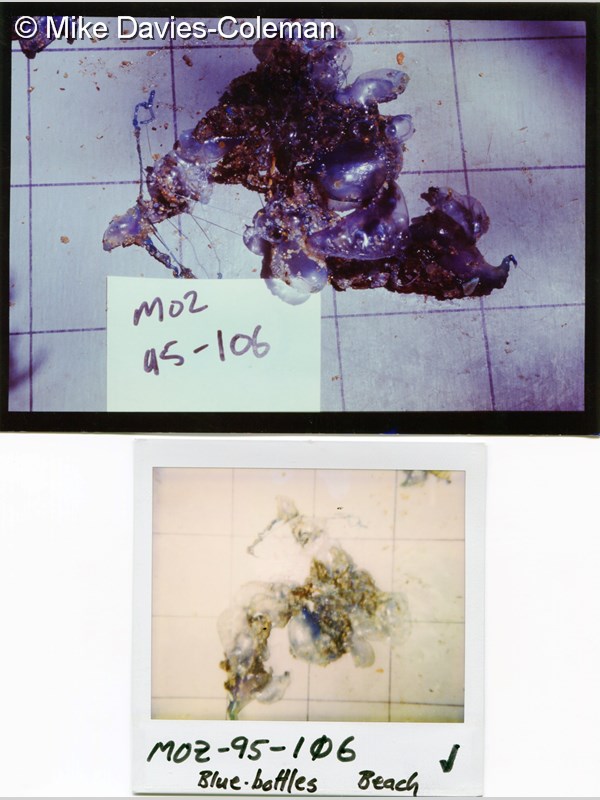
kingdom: Animalia
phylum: Cnidaria
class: Hydrozoa
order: Siphonophorae
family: Physaliidae
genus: Physalia
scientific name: Physalia physalis
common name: Portuguese man-of-war
